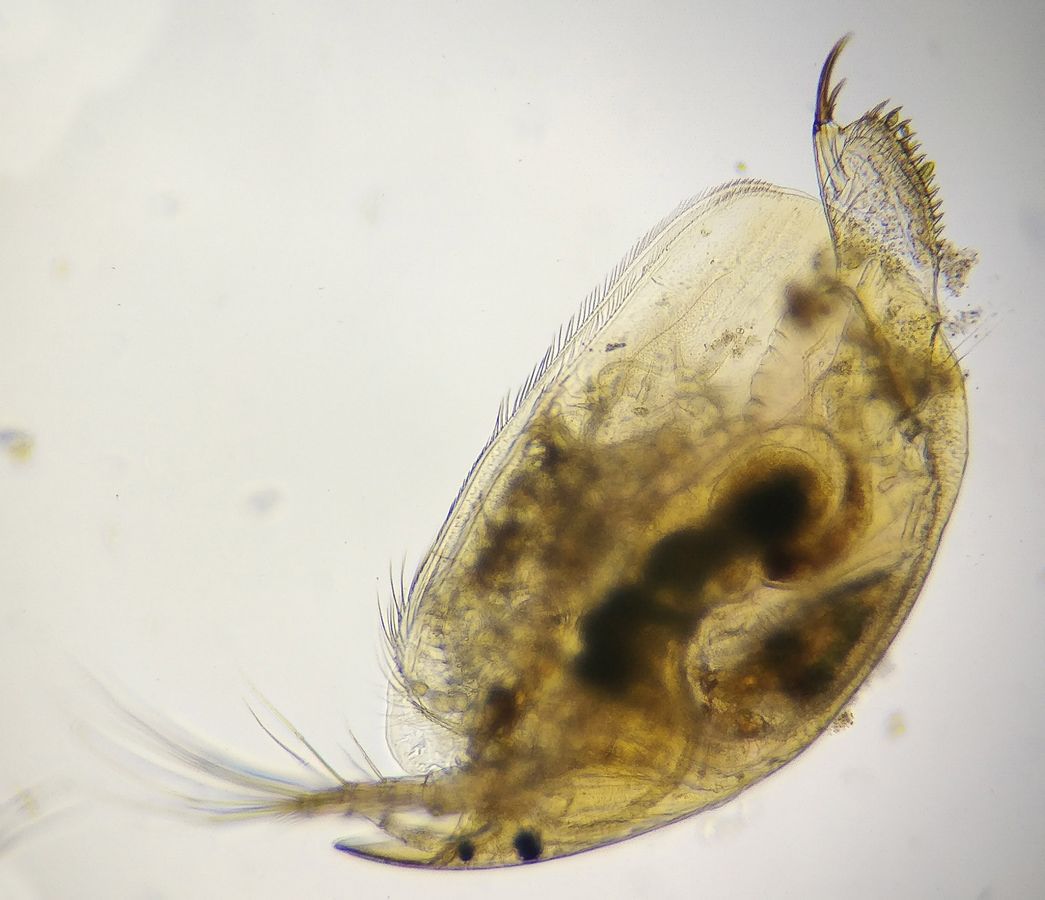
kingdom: Animalia
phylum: Arthropoda
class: Branchiopoda
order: Diplostraca
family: Chydoridae
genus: Alona
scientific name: Alona affinis
